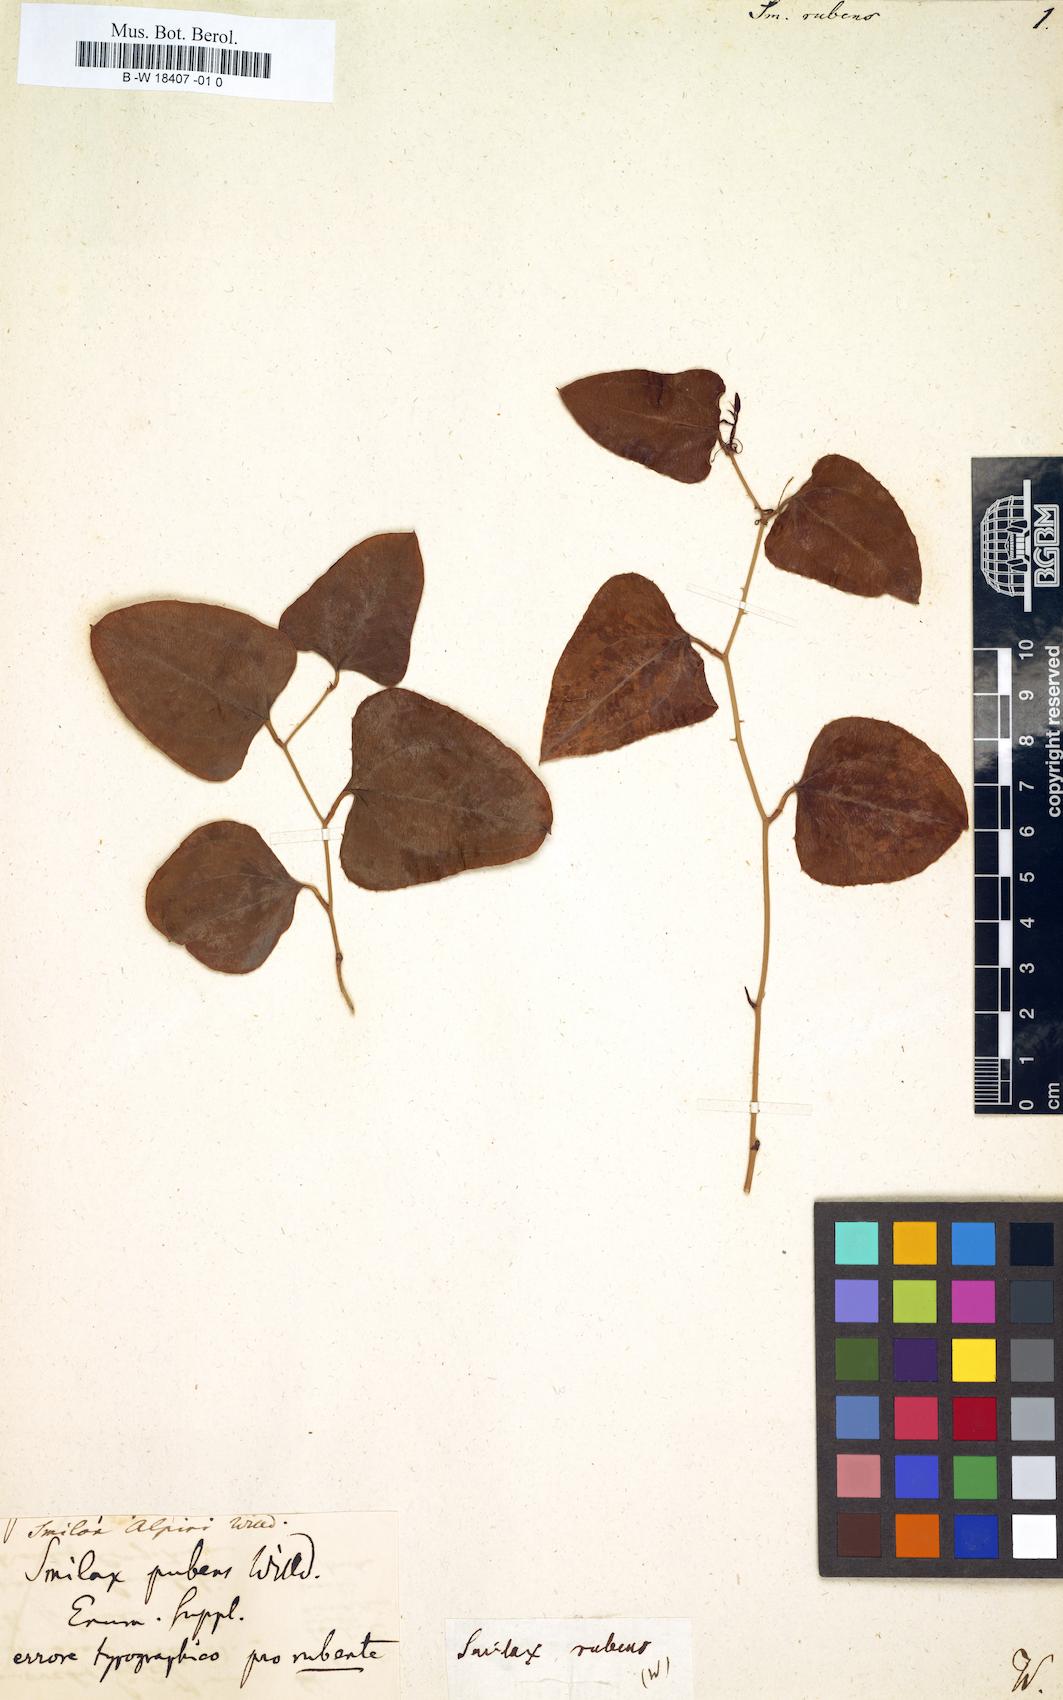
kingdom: Plantae
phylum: Tracheophyta
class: Liliopsida
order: Liliales
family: Smilacaceae
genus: Smilax
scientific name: Smilax bona-nox
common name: Catbrier
